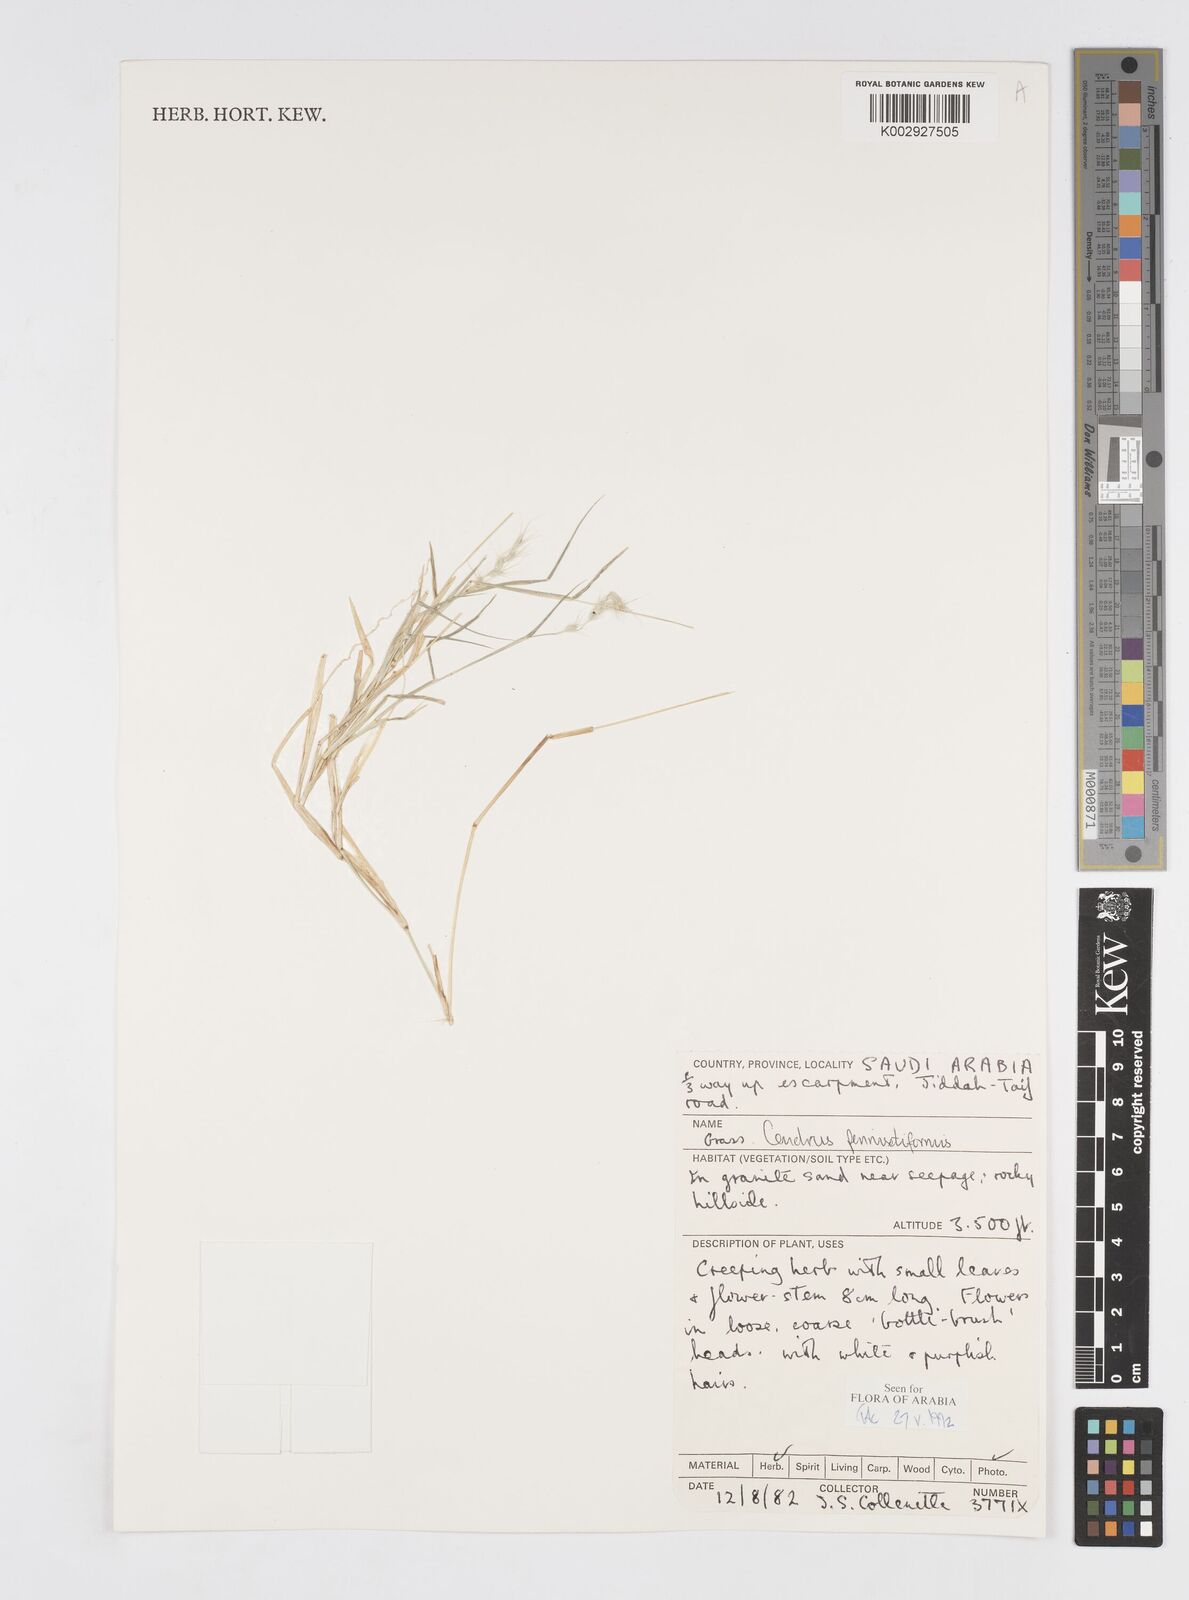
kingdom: Plantae
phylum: Tracheophyta
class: Liliopsida
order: Poales
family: Poaceae
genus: Cenchrus
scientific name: Cenchrus
